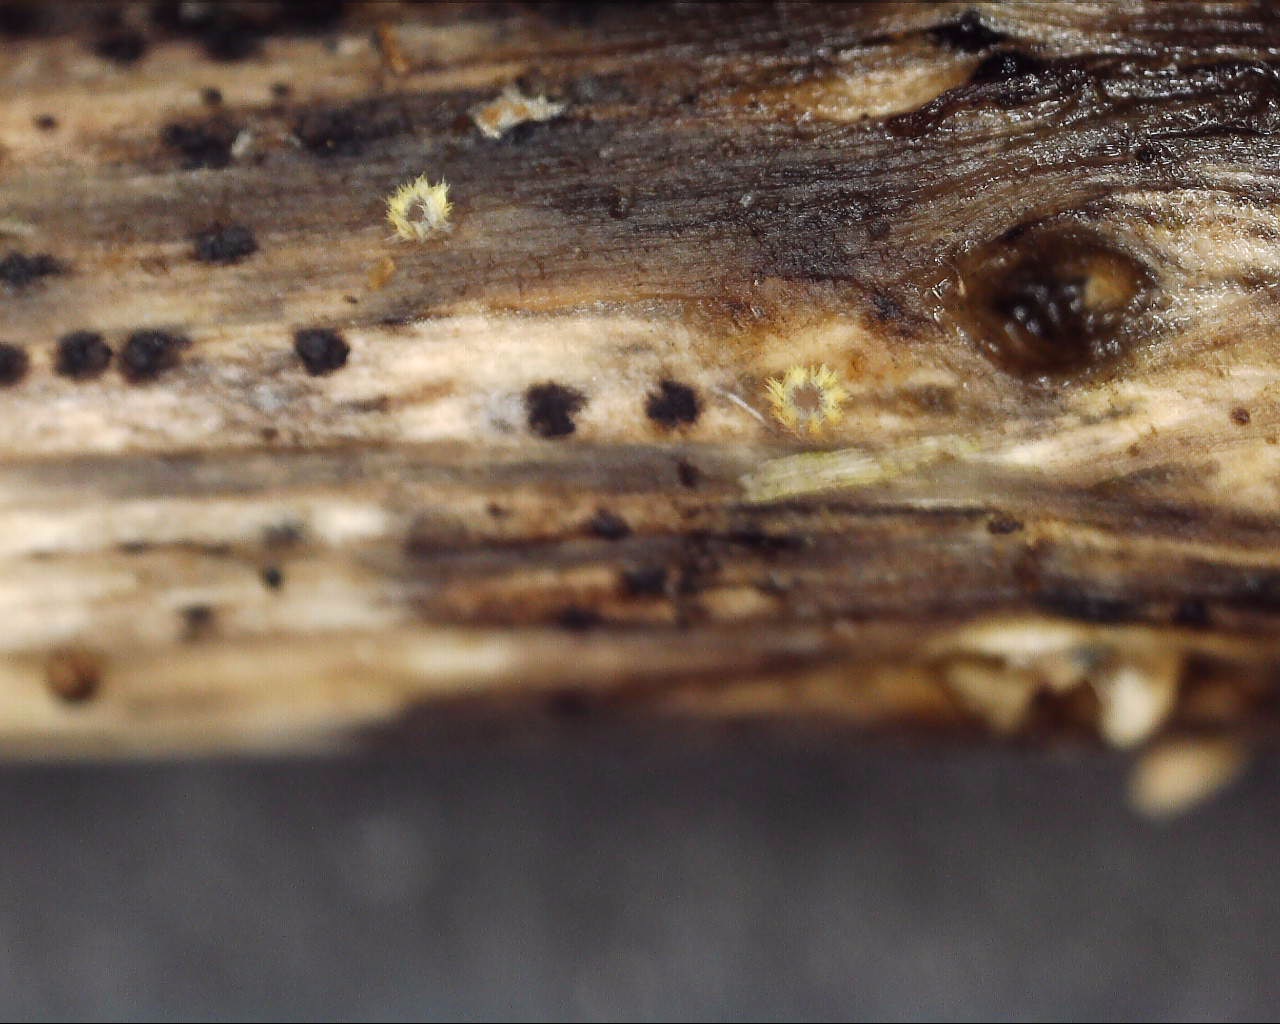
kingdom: Fungi
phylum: Ascomycota
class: Leotiomycetes
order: Helotiales
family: Lachnaceae
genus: Lachnum
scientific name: Lachnum sulphureum
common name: svovlhåret frynseskive
